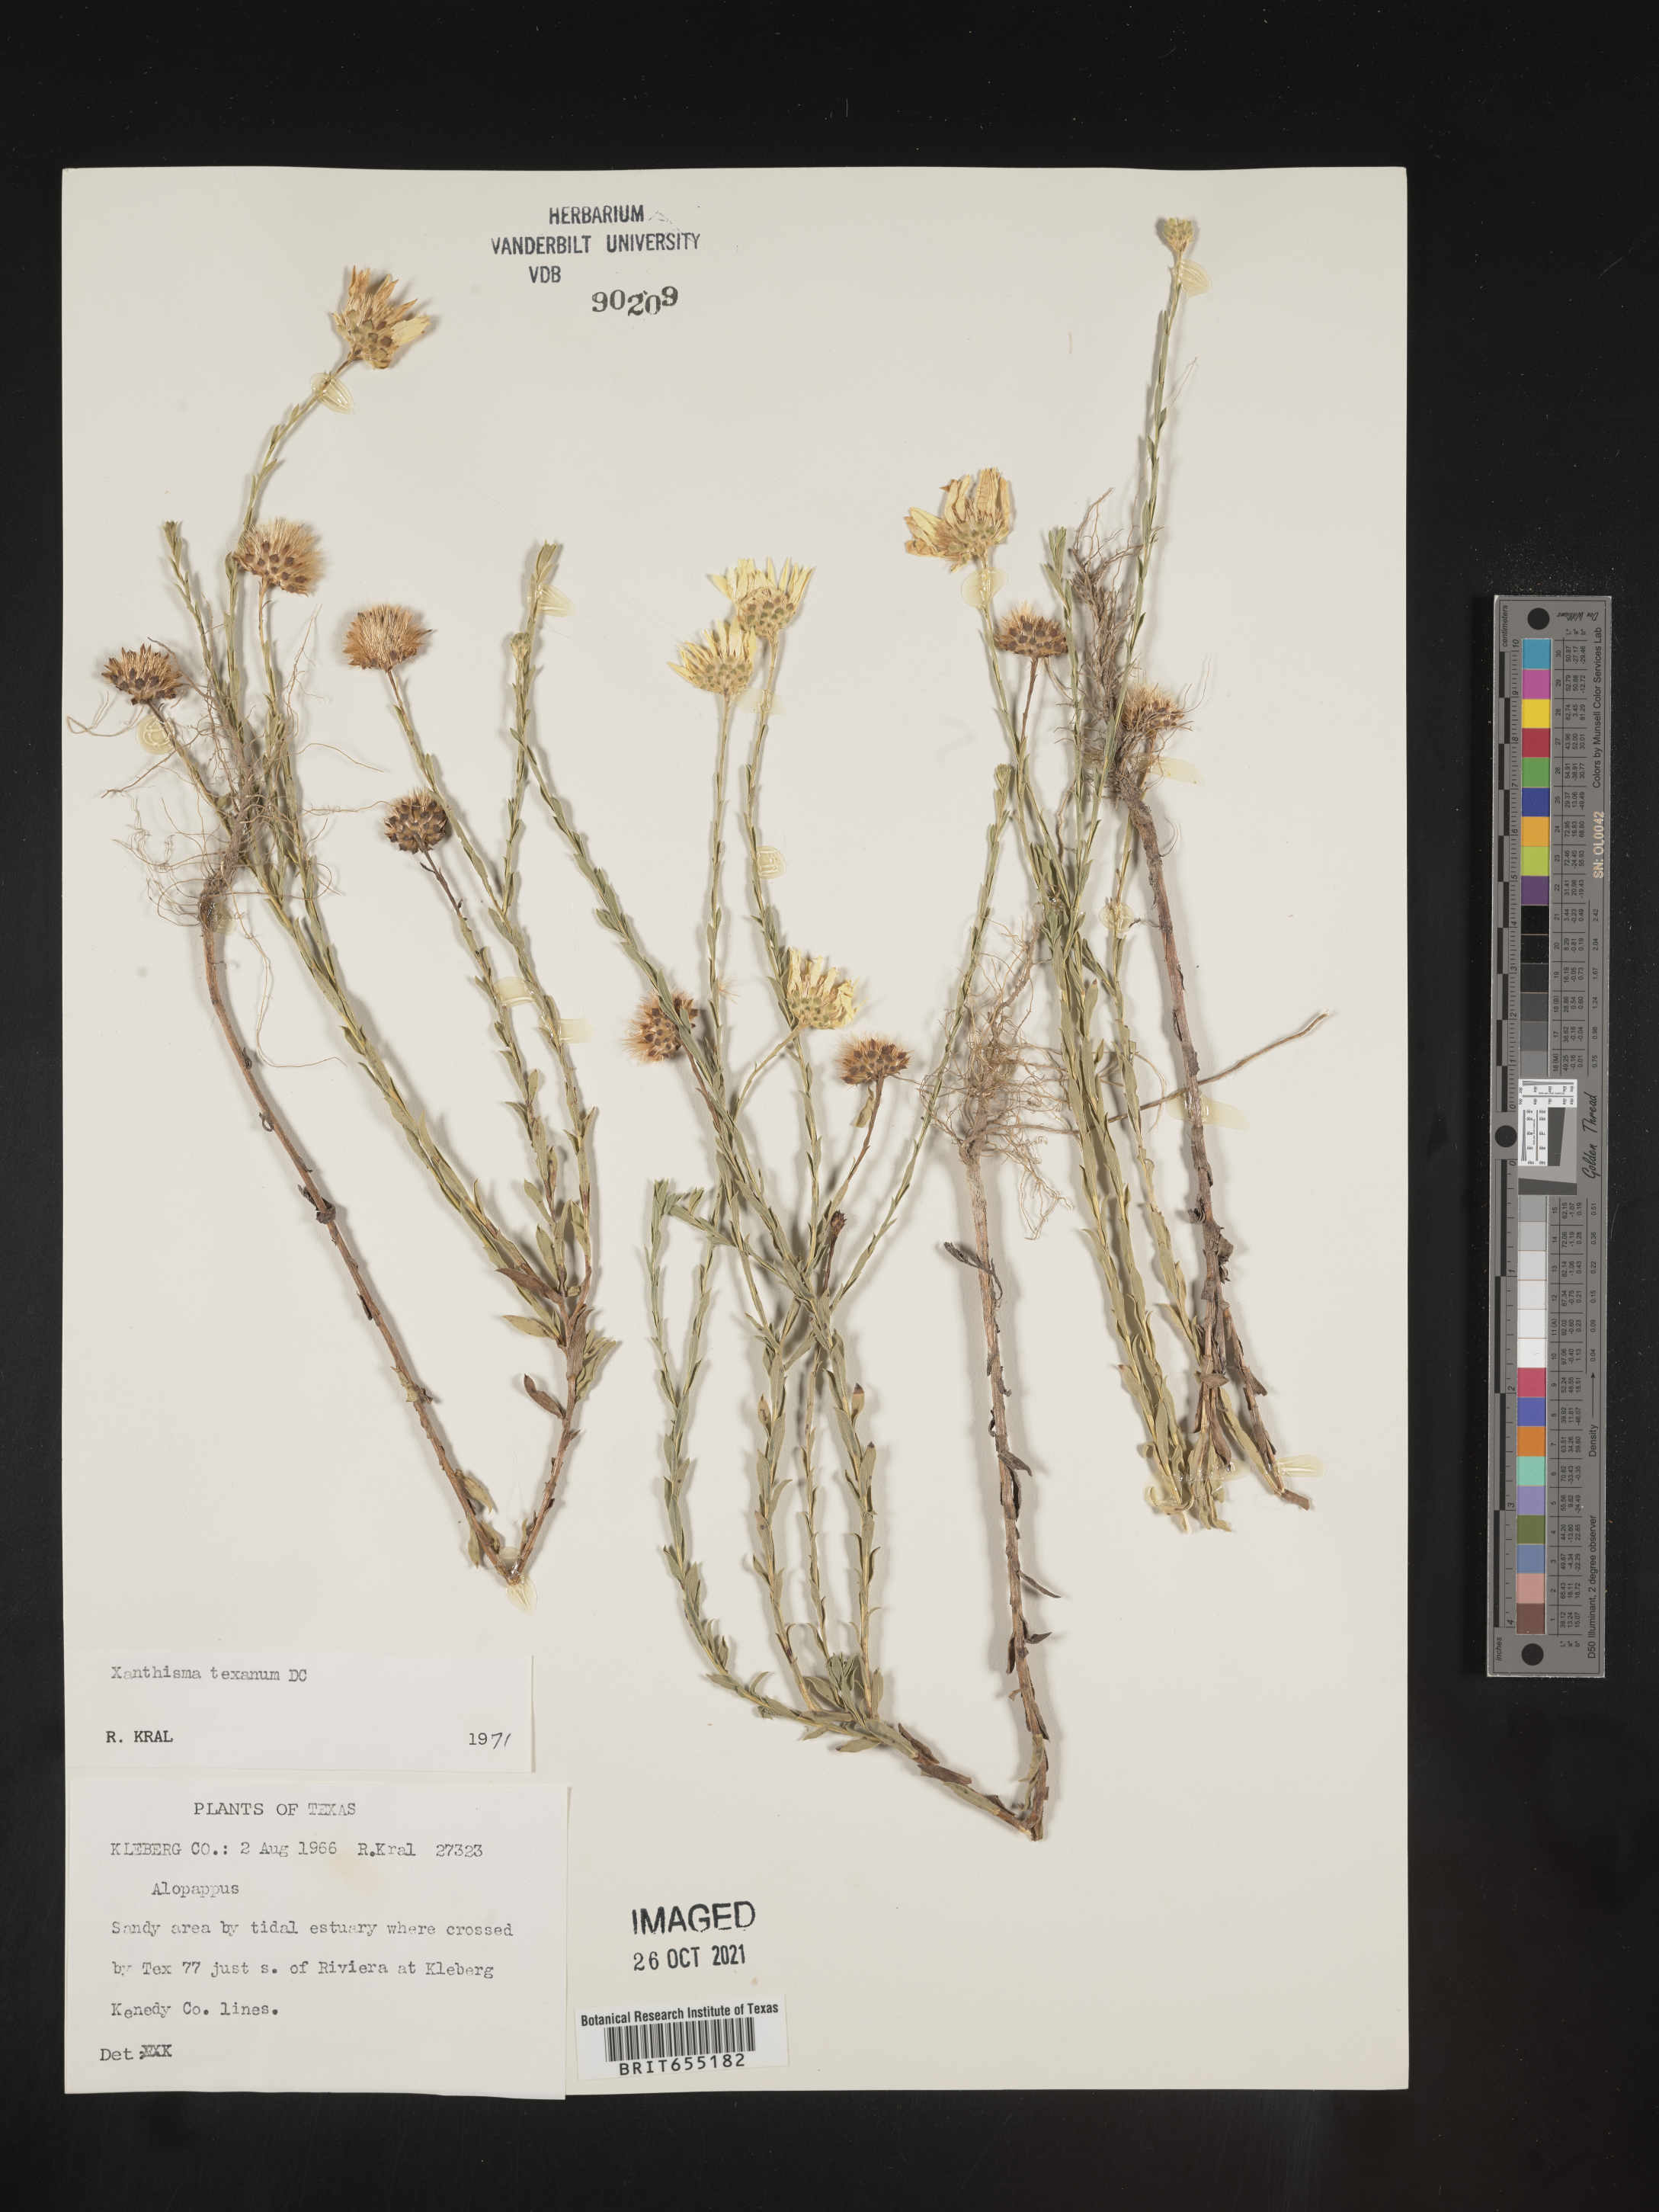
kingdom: Plantae
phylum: Tracheophyta
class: Magnoliopsida
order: Asterales
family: Asteraceae
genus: Xanthisma
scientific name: Xanthisma texanum
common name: Texas sleepy daisy
